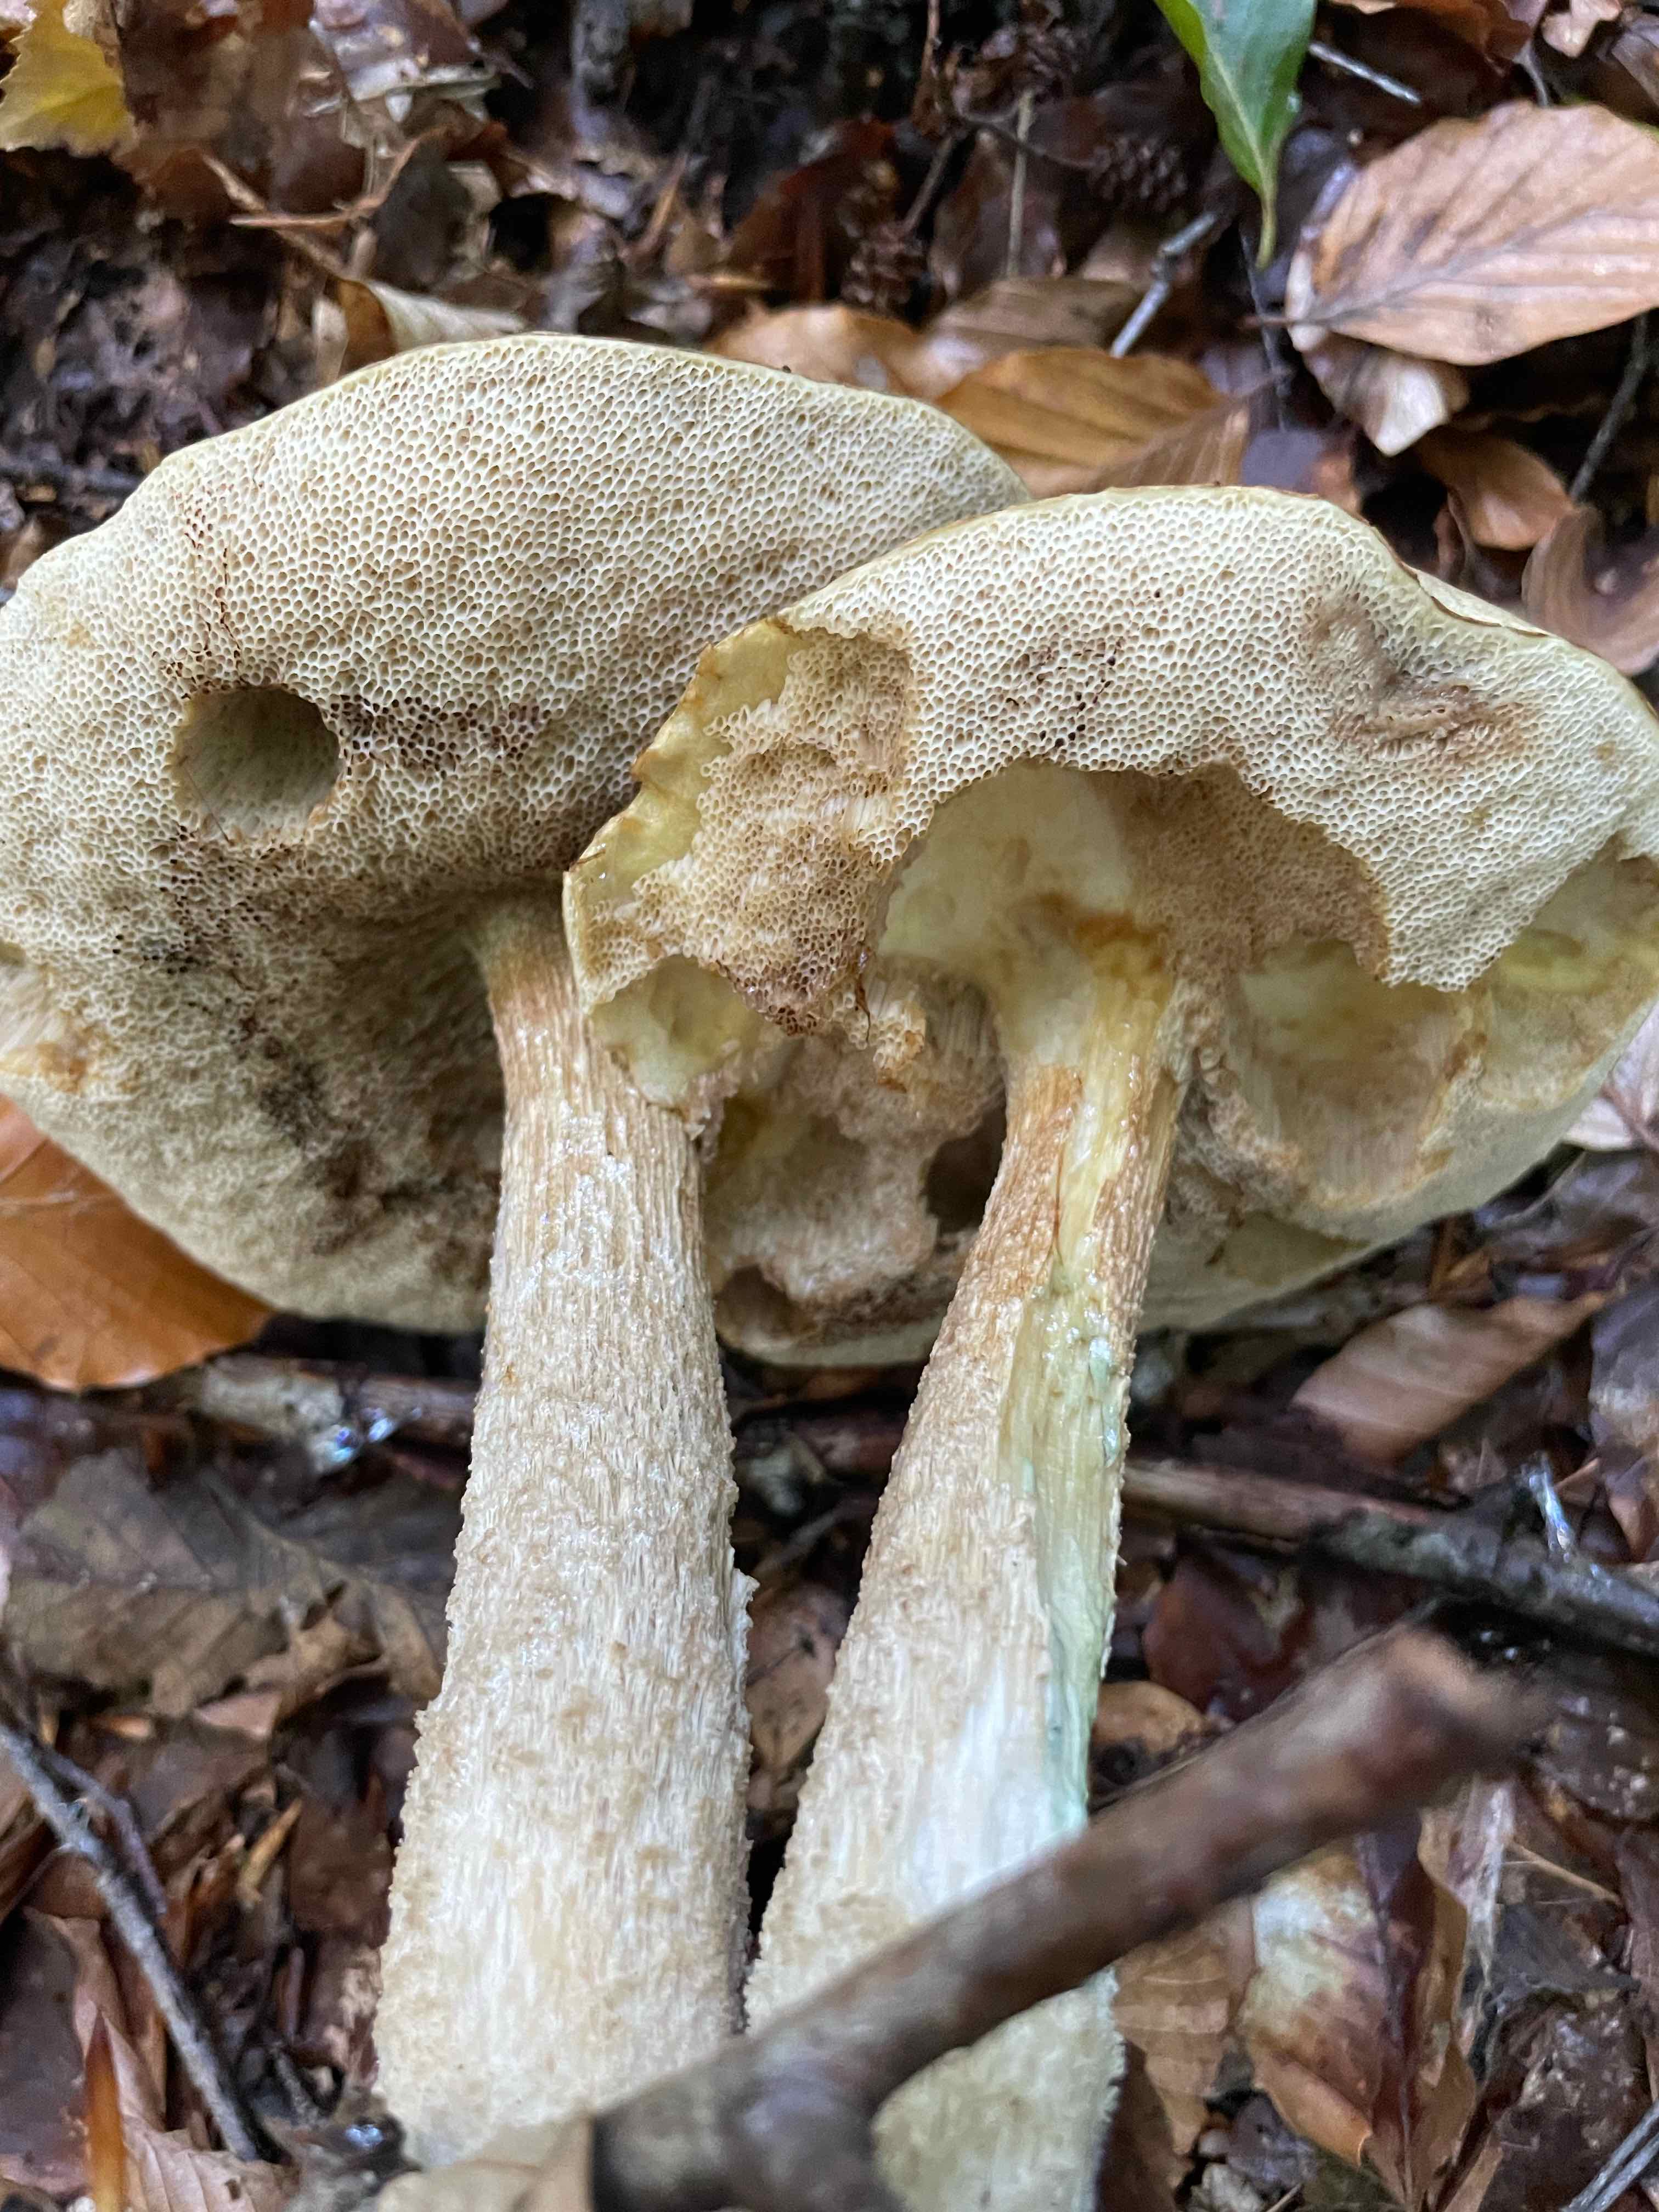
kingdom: Fungi
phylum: Basidiomycota
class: Agaricomycetes
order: Boletales
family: Boletaceae
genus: Leccinum
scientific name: Leccinum scabrum
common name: hvid skælrørhat
